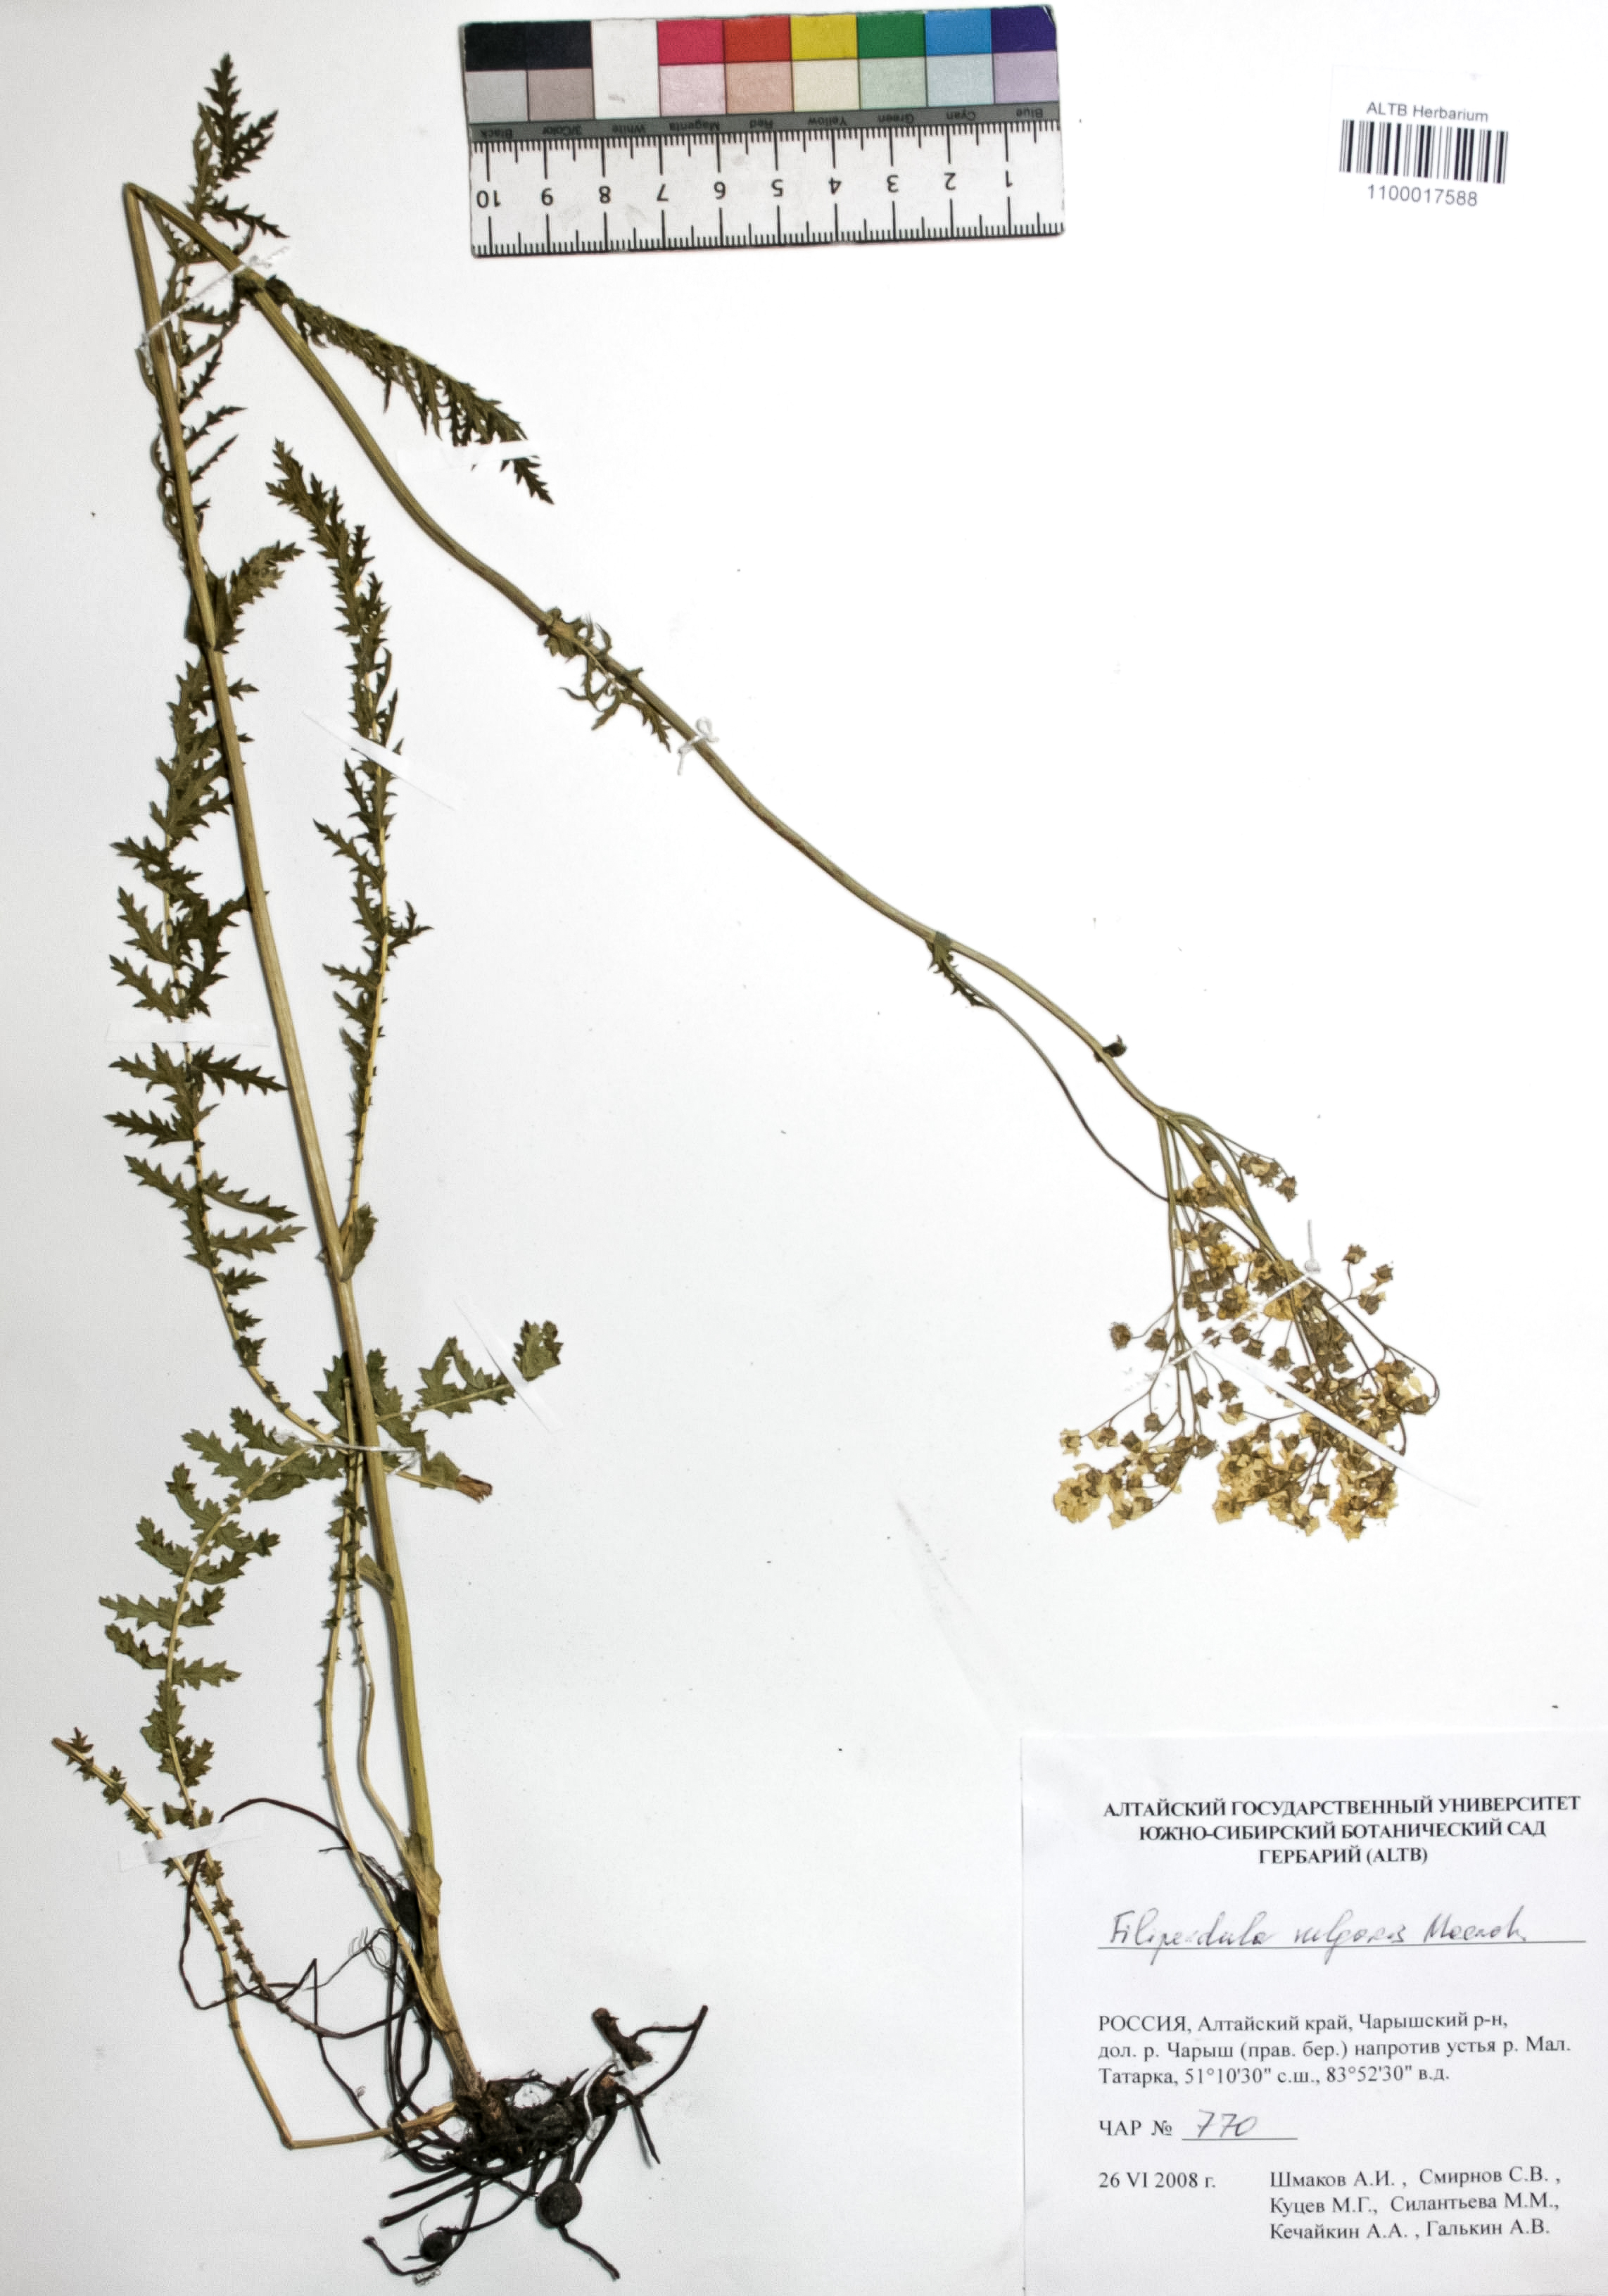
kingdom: Plantae
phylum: Tracheophyta
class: Magnoliopsida
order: Rosales
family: Rosaceae
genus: Filipendula
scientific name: Filipendula vulgaris
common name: Dropwort
